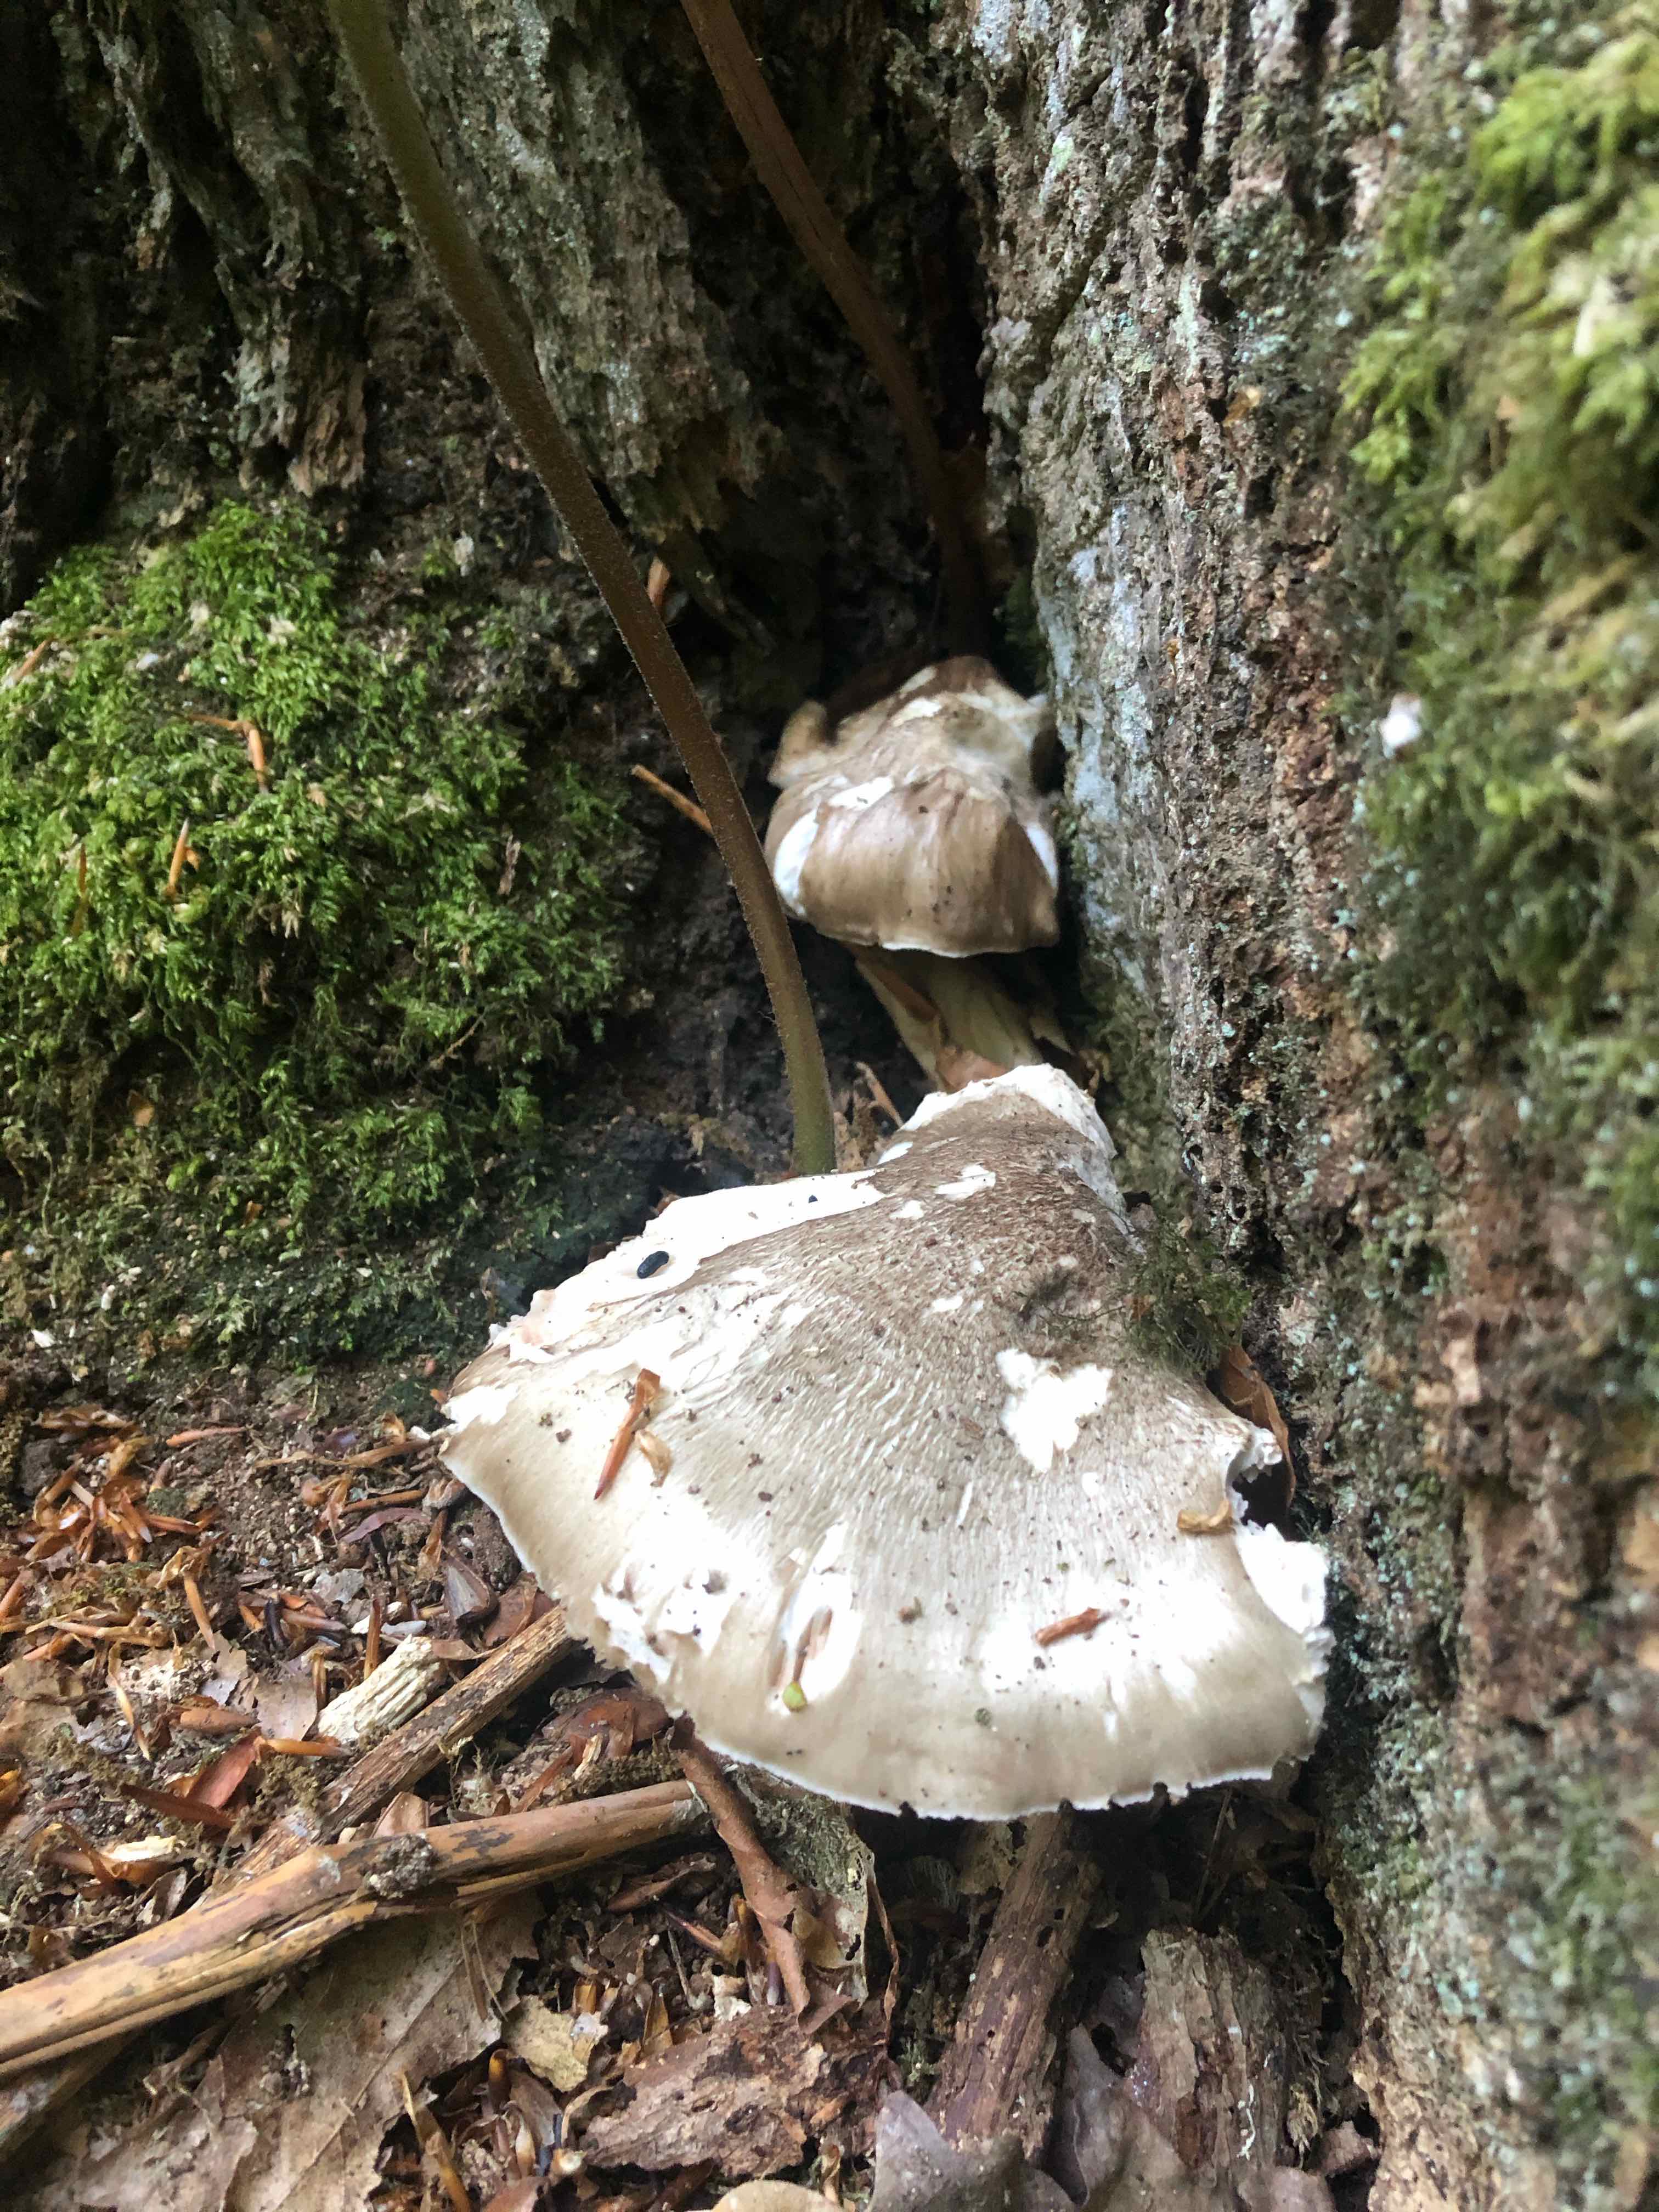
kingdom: Fungi
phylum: Basidiomycota
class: Agaricomycetes
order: Agaricales
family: Pluteaceae
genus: Pluteus
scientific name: Pluteus
